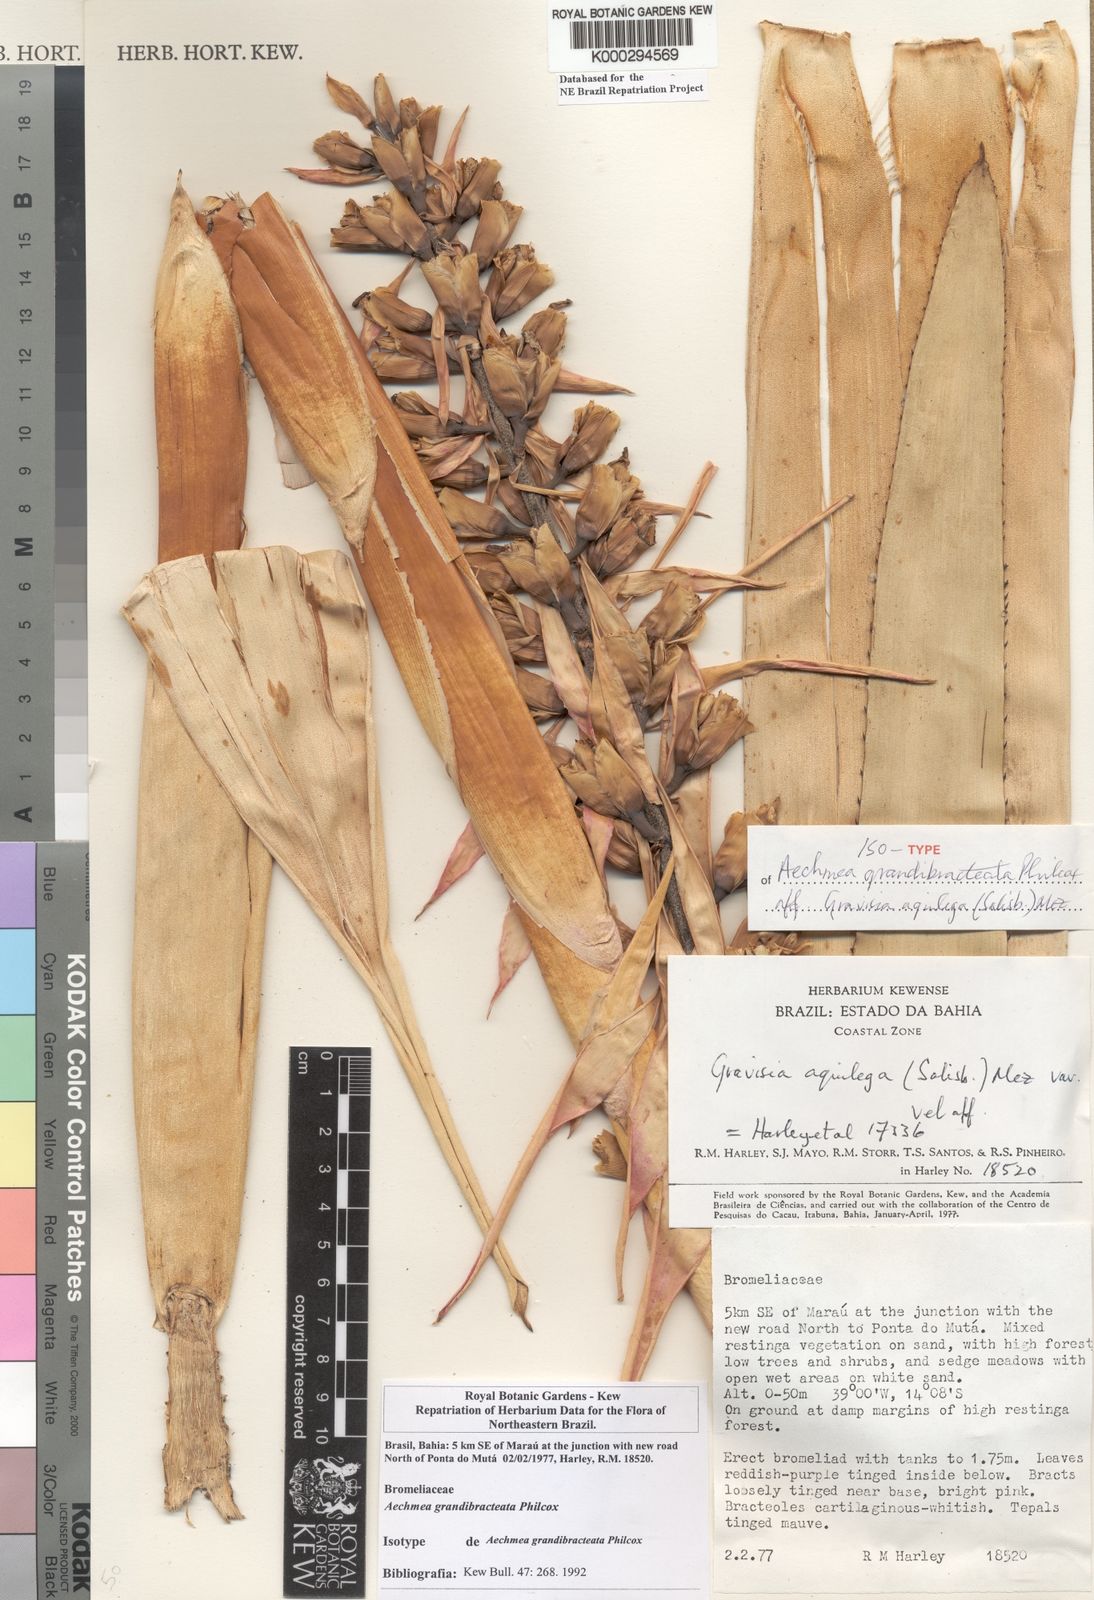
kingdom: Plantae
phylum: Tracheophyta
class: Liliopsida
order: Poales
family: Bromeliaceae
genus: Aechmea
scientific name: Aechmea marauensis
